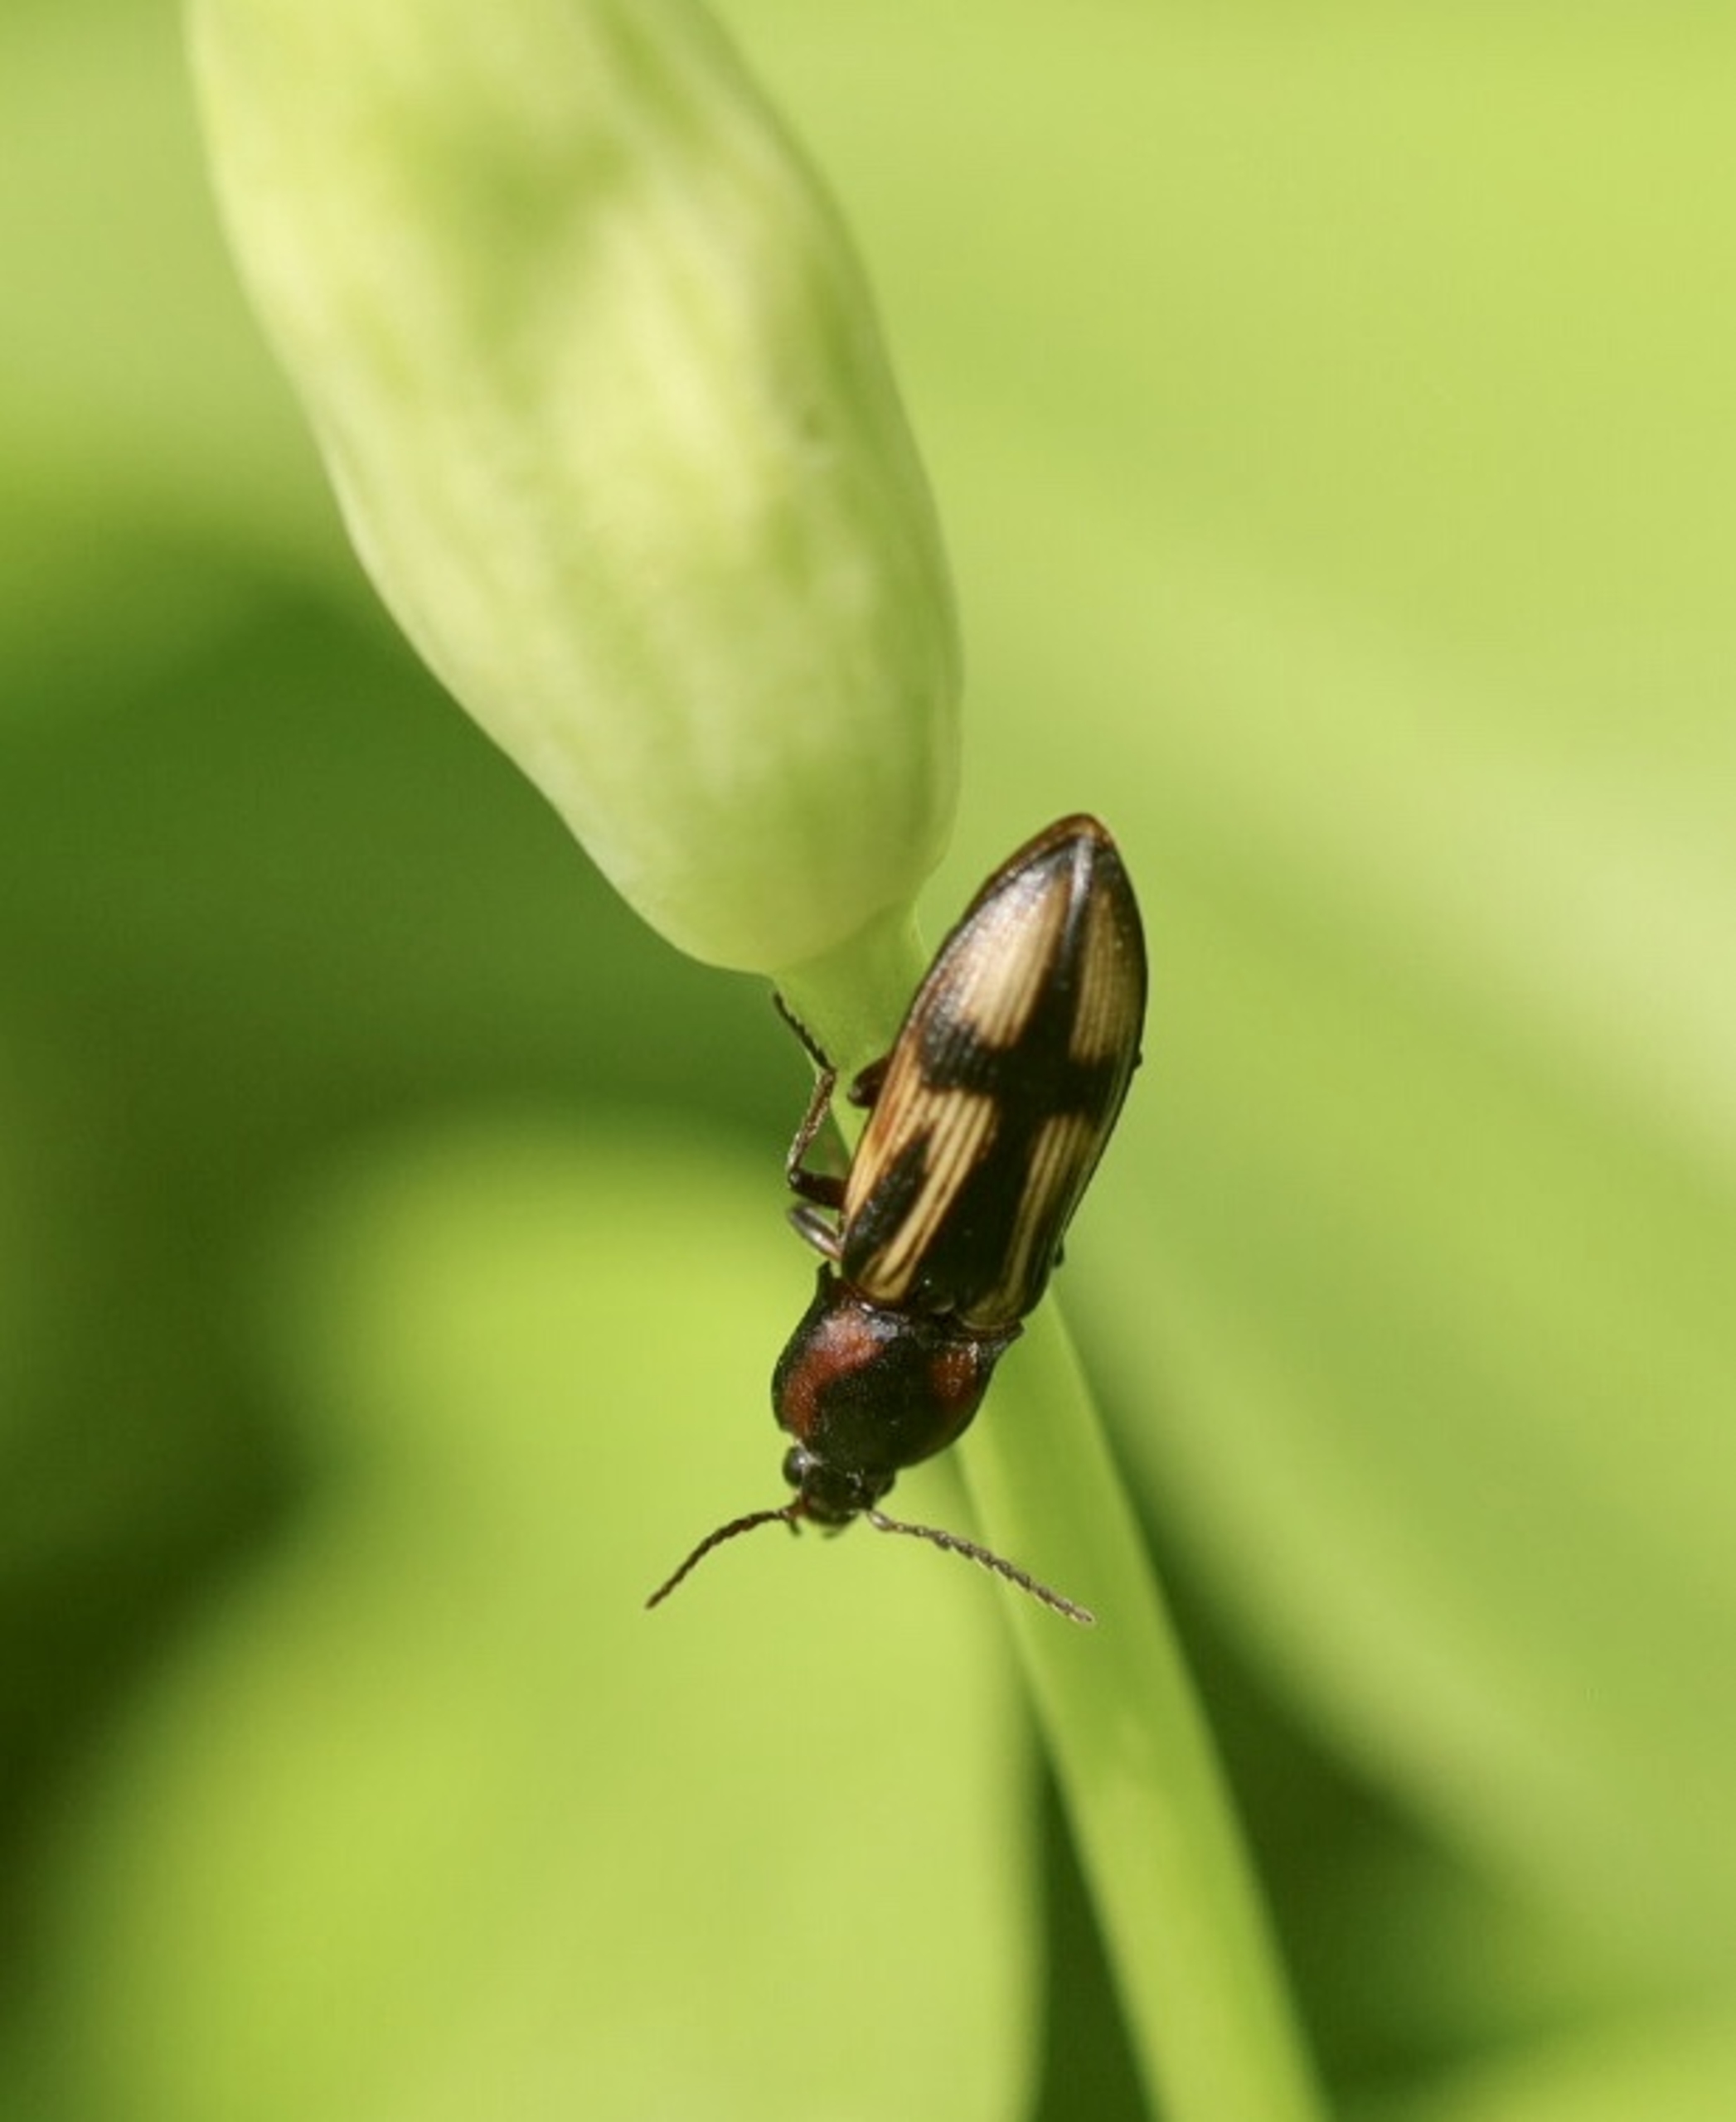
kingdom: Animalia
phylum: Arthropoda
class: Insecta
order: Coleoptera
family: Elateridae
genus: Selatosomus
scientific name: Selatosomus cruciatus
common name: Korssmælder
